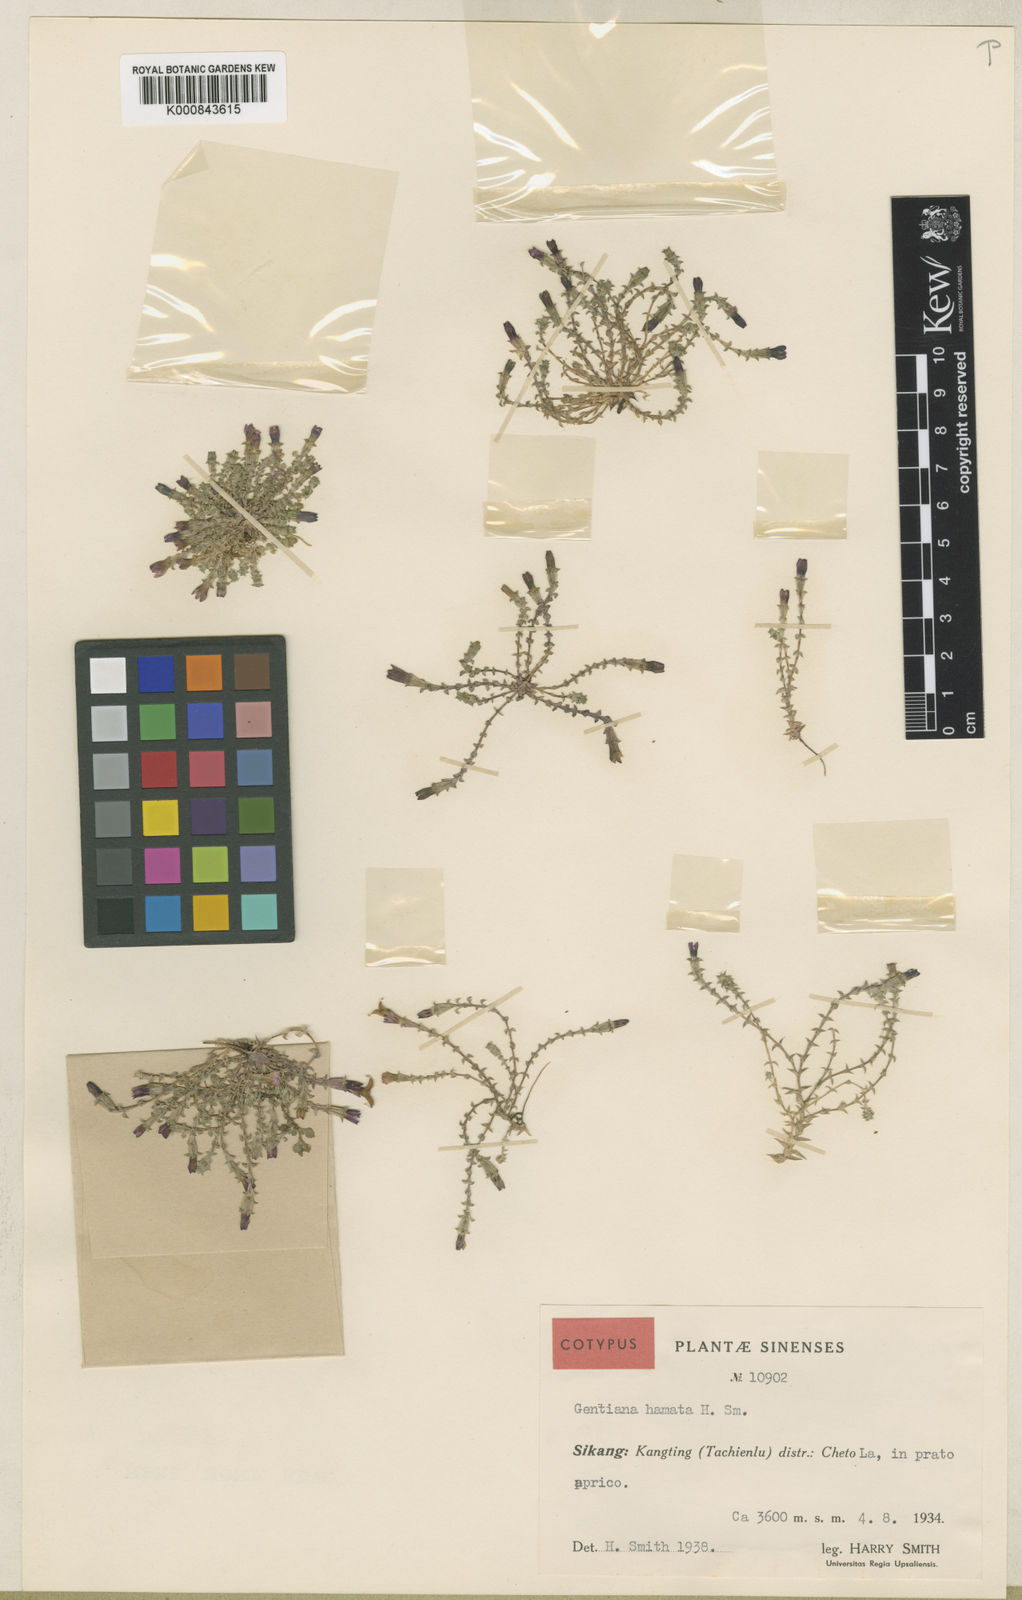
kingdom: Plantae
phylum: Tracheophyta
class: Magnoliopsida
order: Gentianales
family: Gentianaceae
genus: Gentiana
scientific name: Gentiana crassuloides
